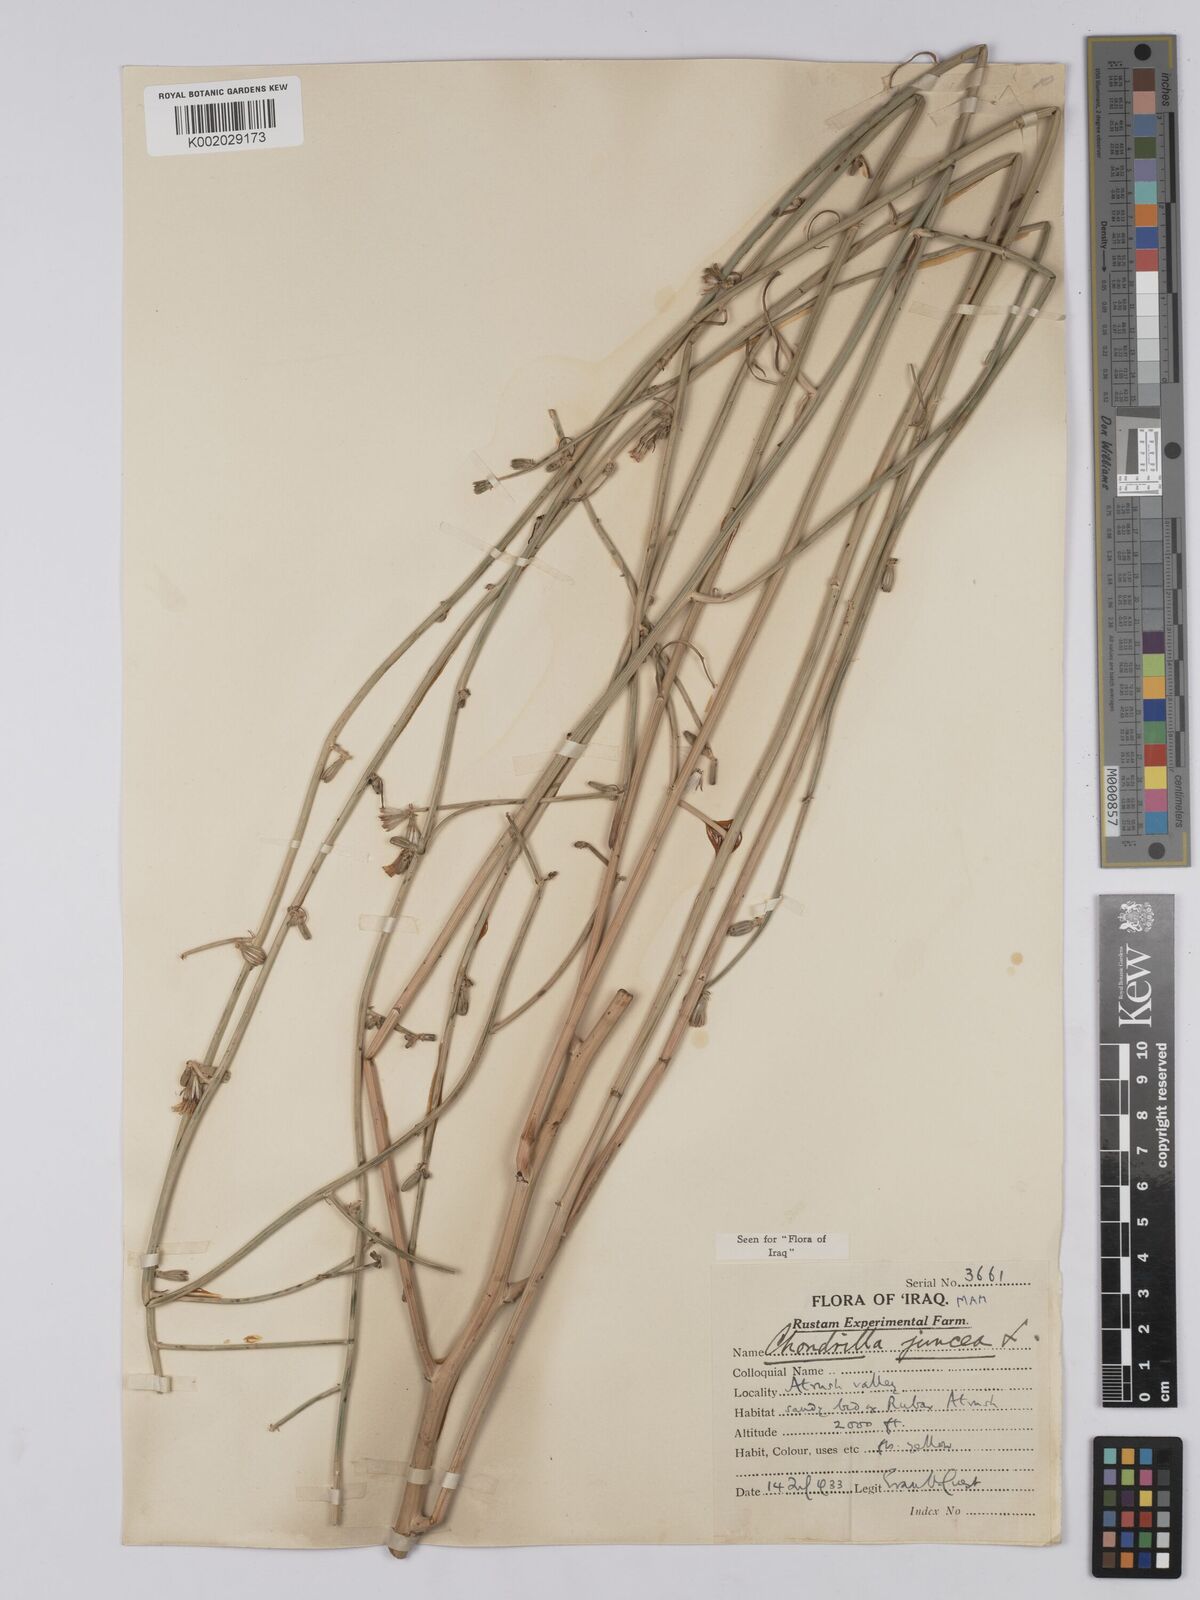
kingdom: Plantae
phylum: Tracheophyta
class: Magnoliopsida
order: Asterales
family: Asteraceae
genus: Chondrilla
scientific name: Chondrilla juncea
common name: Skeleton weed
